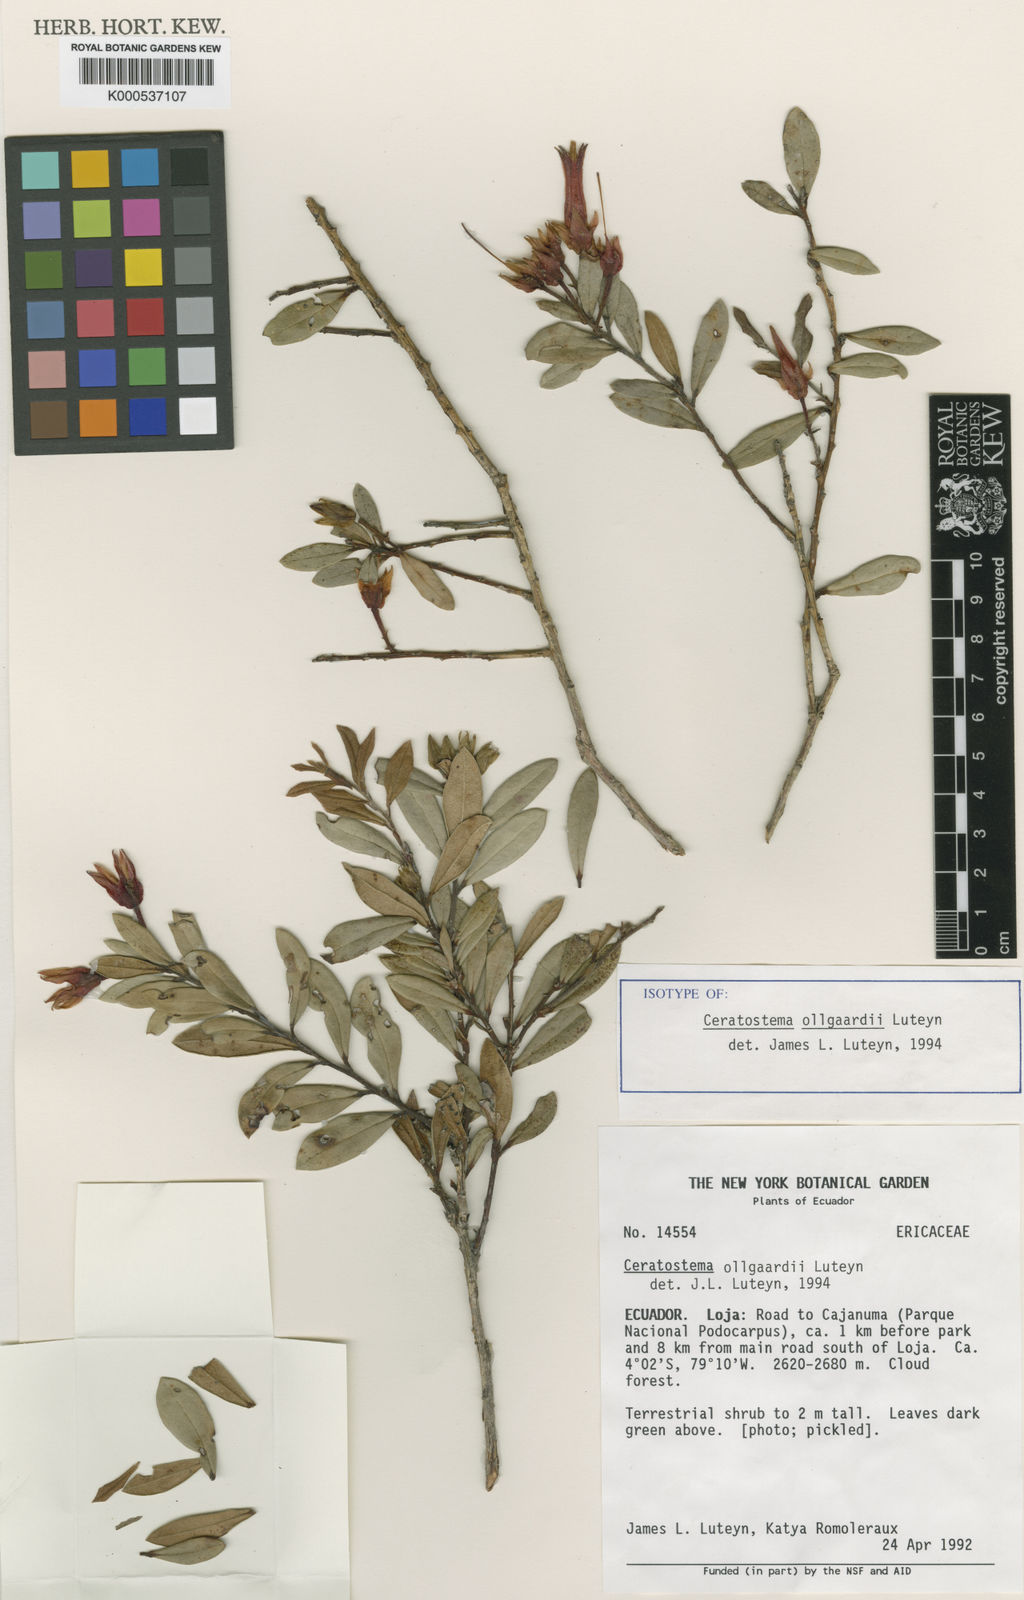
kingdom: Plantae
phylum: Tracheophyta
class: Magnoliopsida
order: Ericales
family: Ericaceae
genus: Ceratostema
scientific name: Ceratostema oellgaardii
